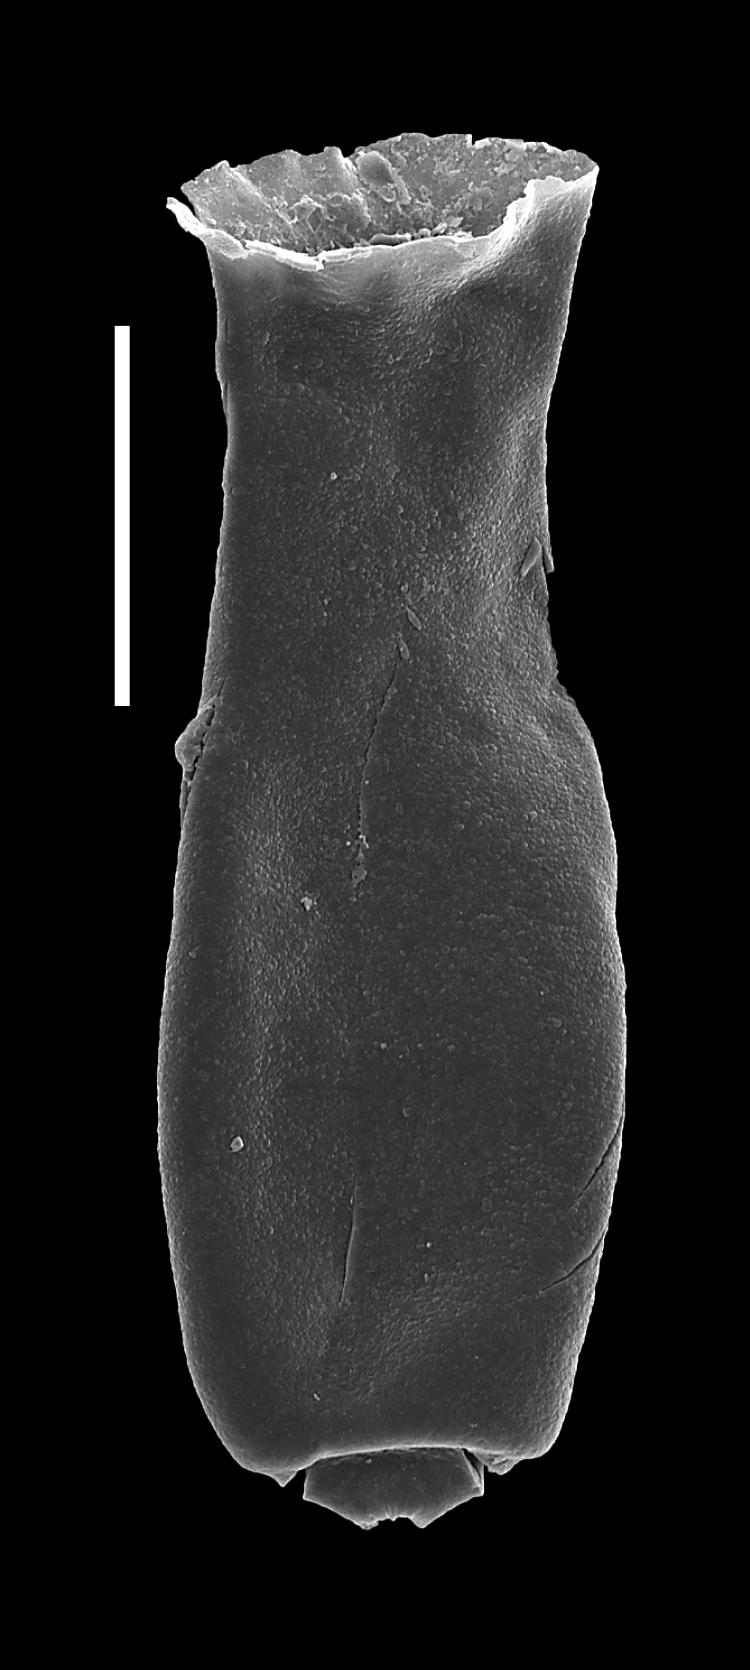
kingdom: Animalia
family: Conochitinidae
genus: Conochitina
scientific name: Conochitina
